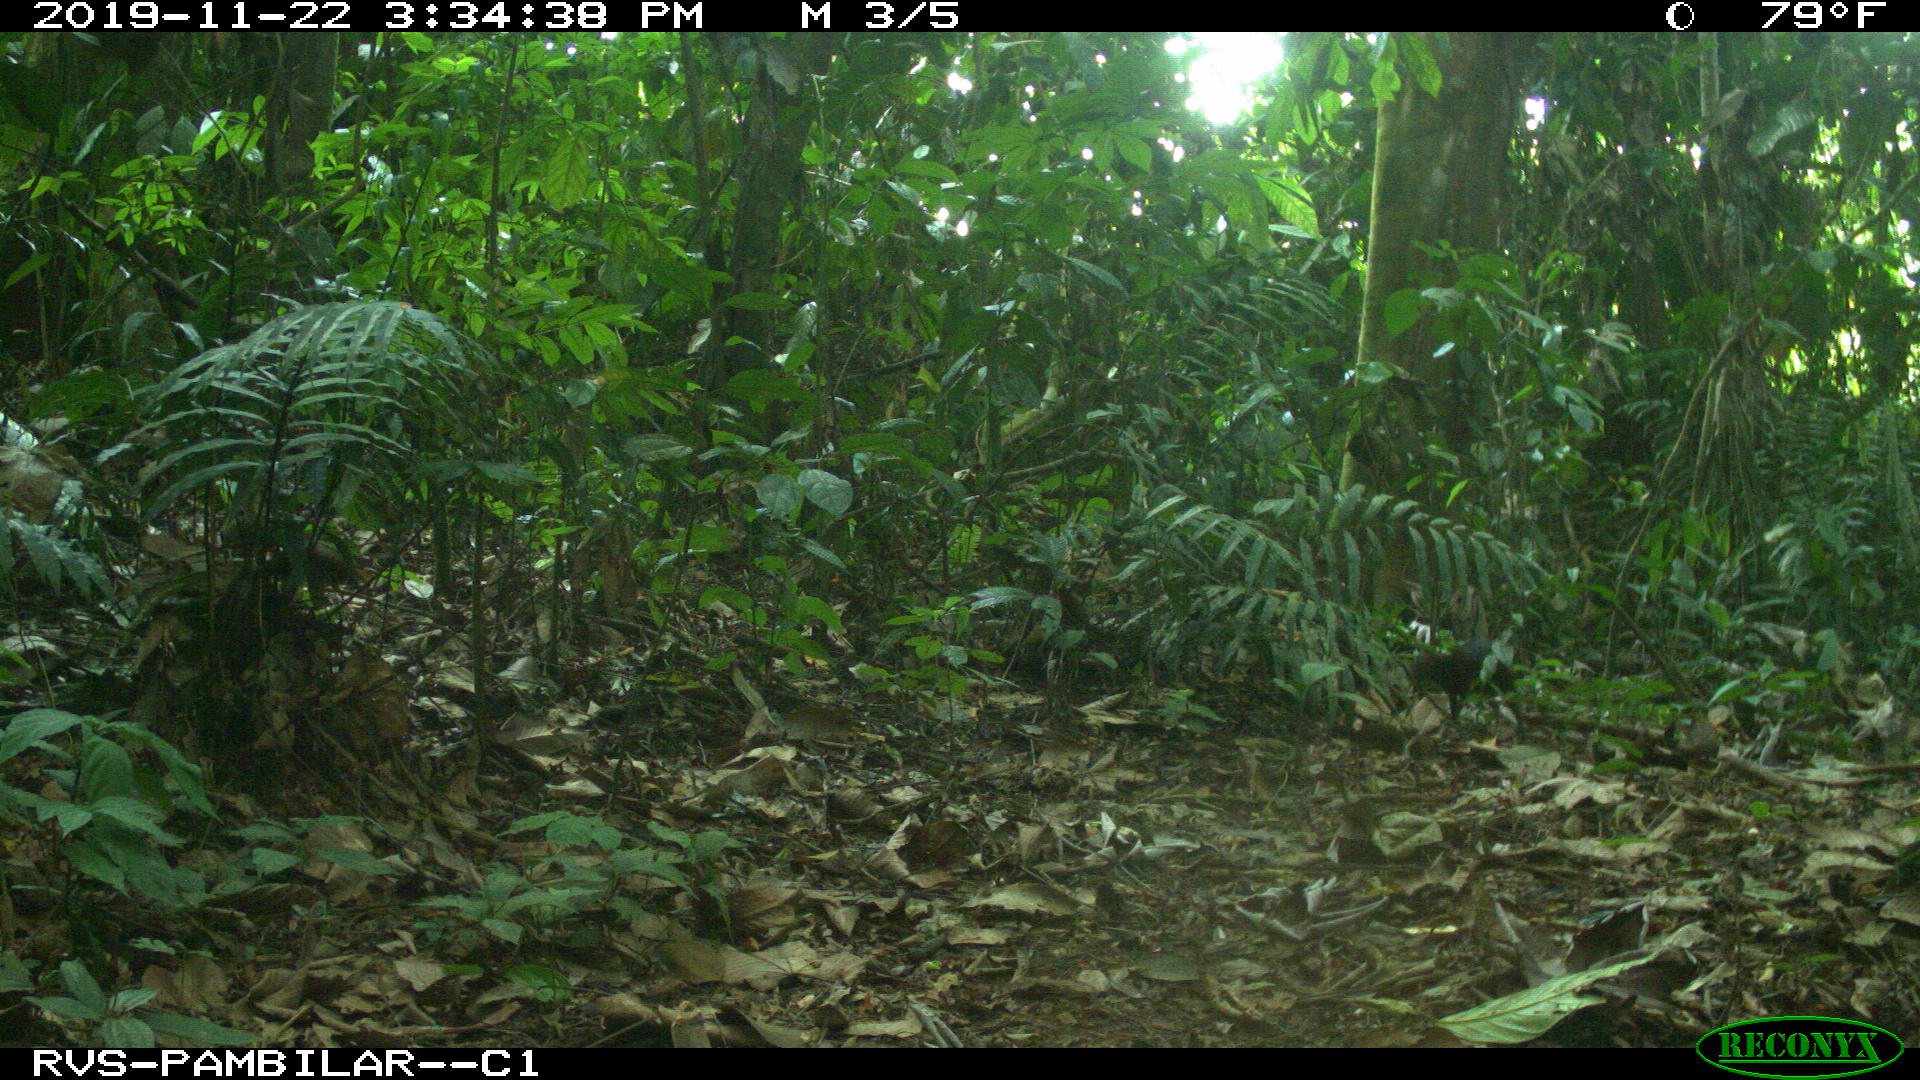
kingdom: Animalia
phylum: Chordata
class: Mammalia
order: Rodentia
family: Dasyproctidae
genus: Dasyprocta
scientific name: Dasyprocta punctata
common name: Central american agouti
